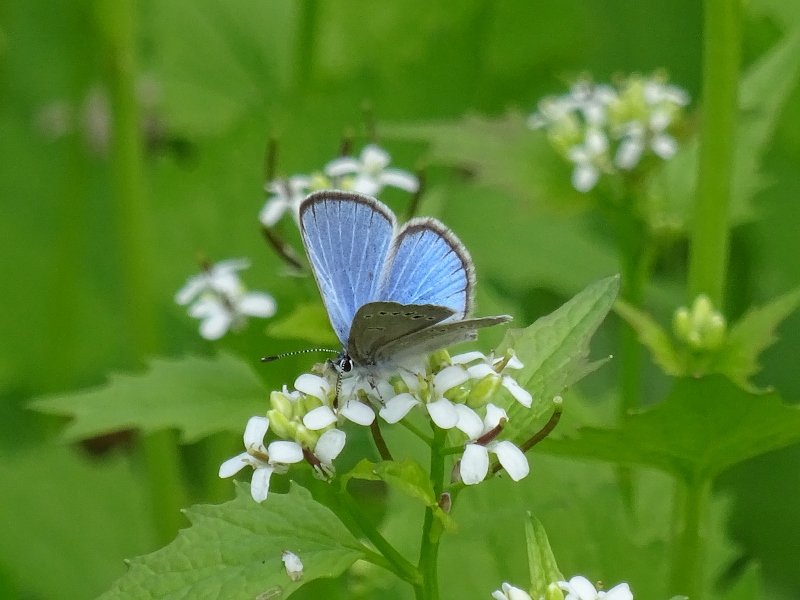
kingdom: Animalia
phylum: Arthropoda
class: Insecta
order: Lepidoptera
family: Lycaenidae
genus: Glaucopsyche
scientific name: Glaucopsyche lygdamus
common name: Silvery Blue
